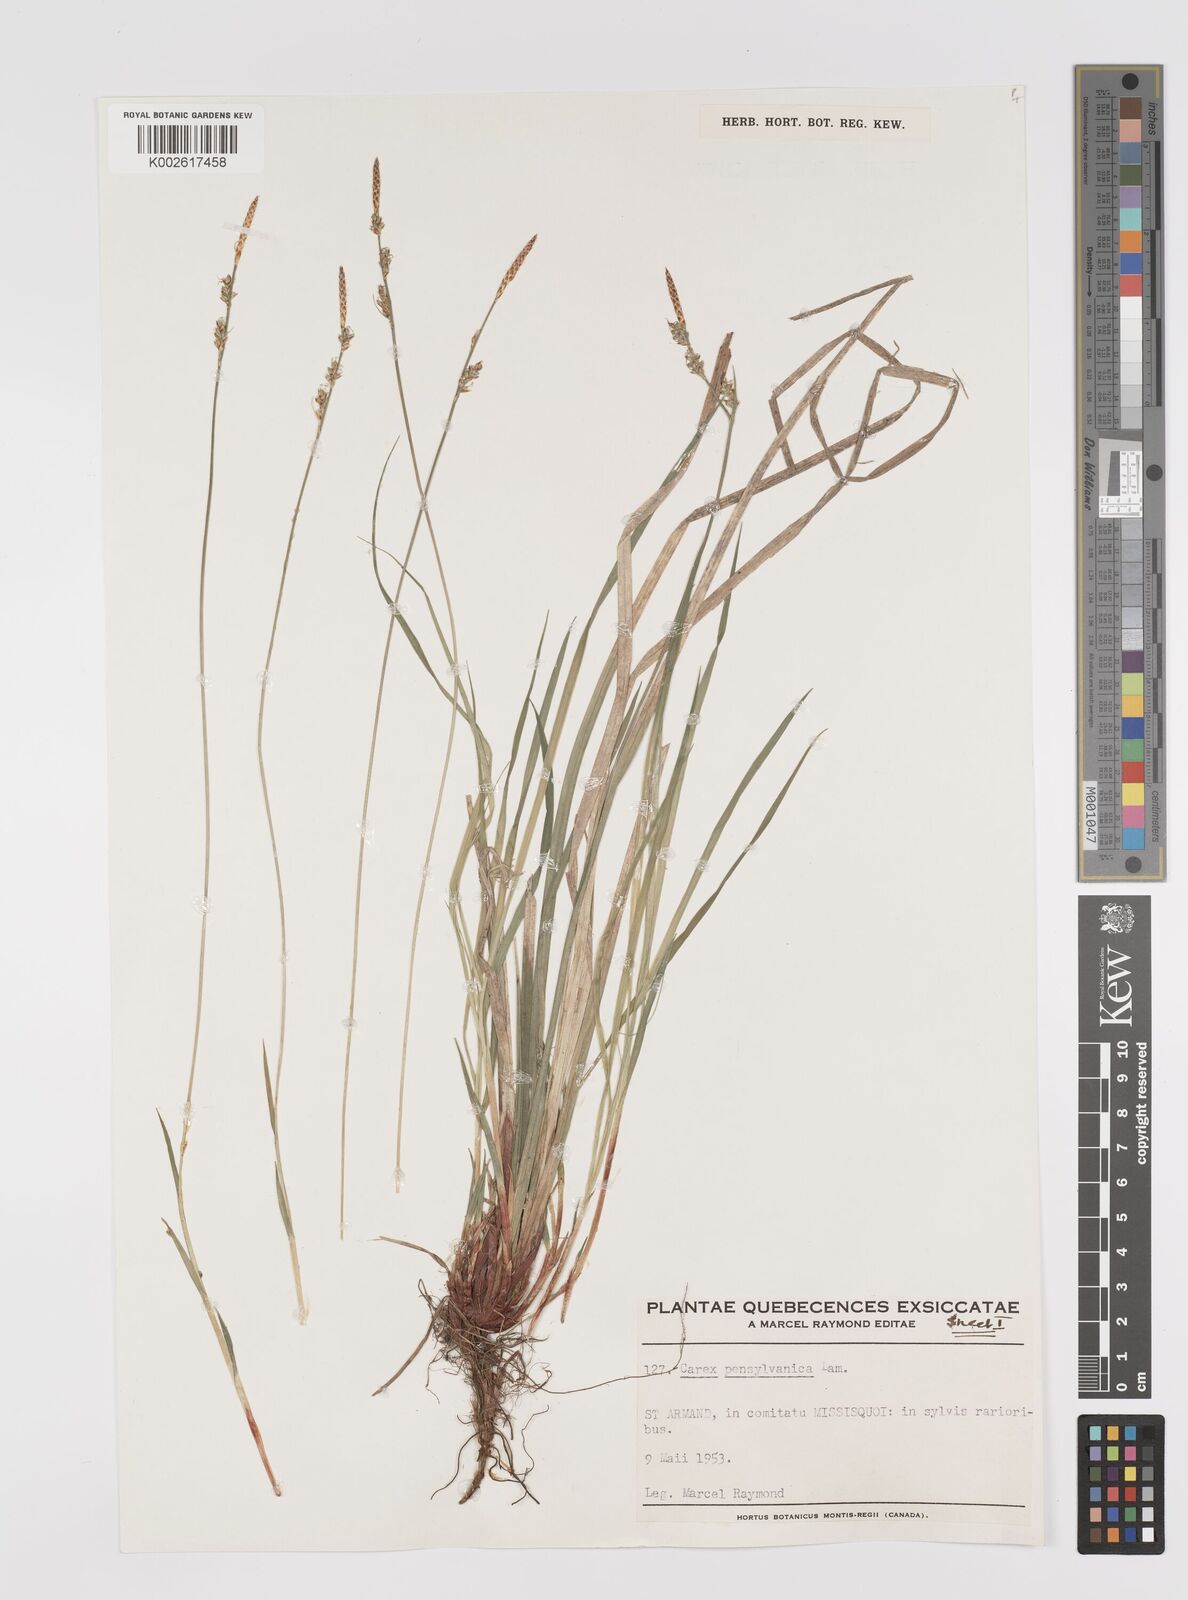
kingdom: Plantae
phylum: Tracheophyta
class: Liliopsida
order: Poales
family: Cyperaceae
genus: Carex
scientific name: Carex pensylvanica
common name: Common oak sedge
